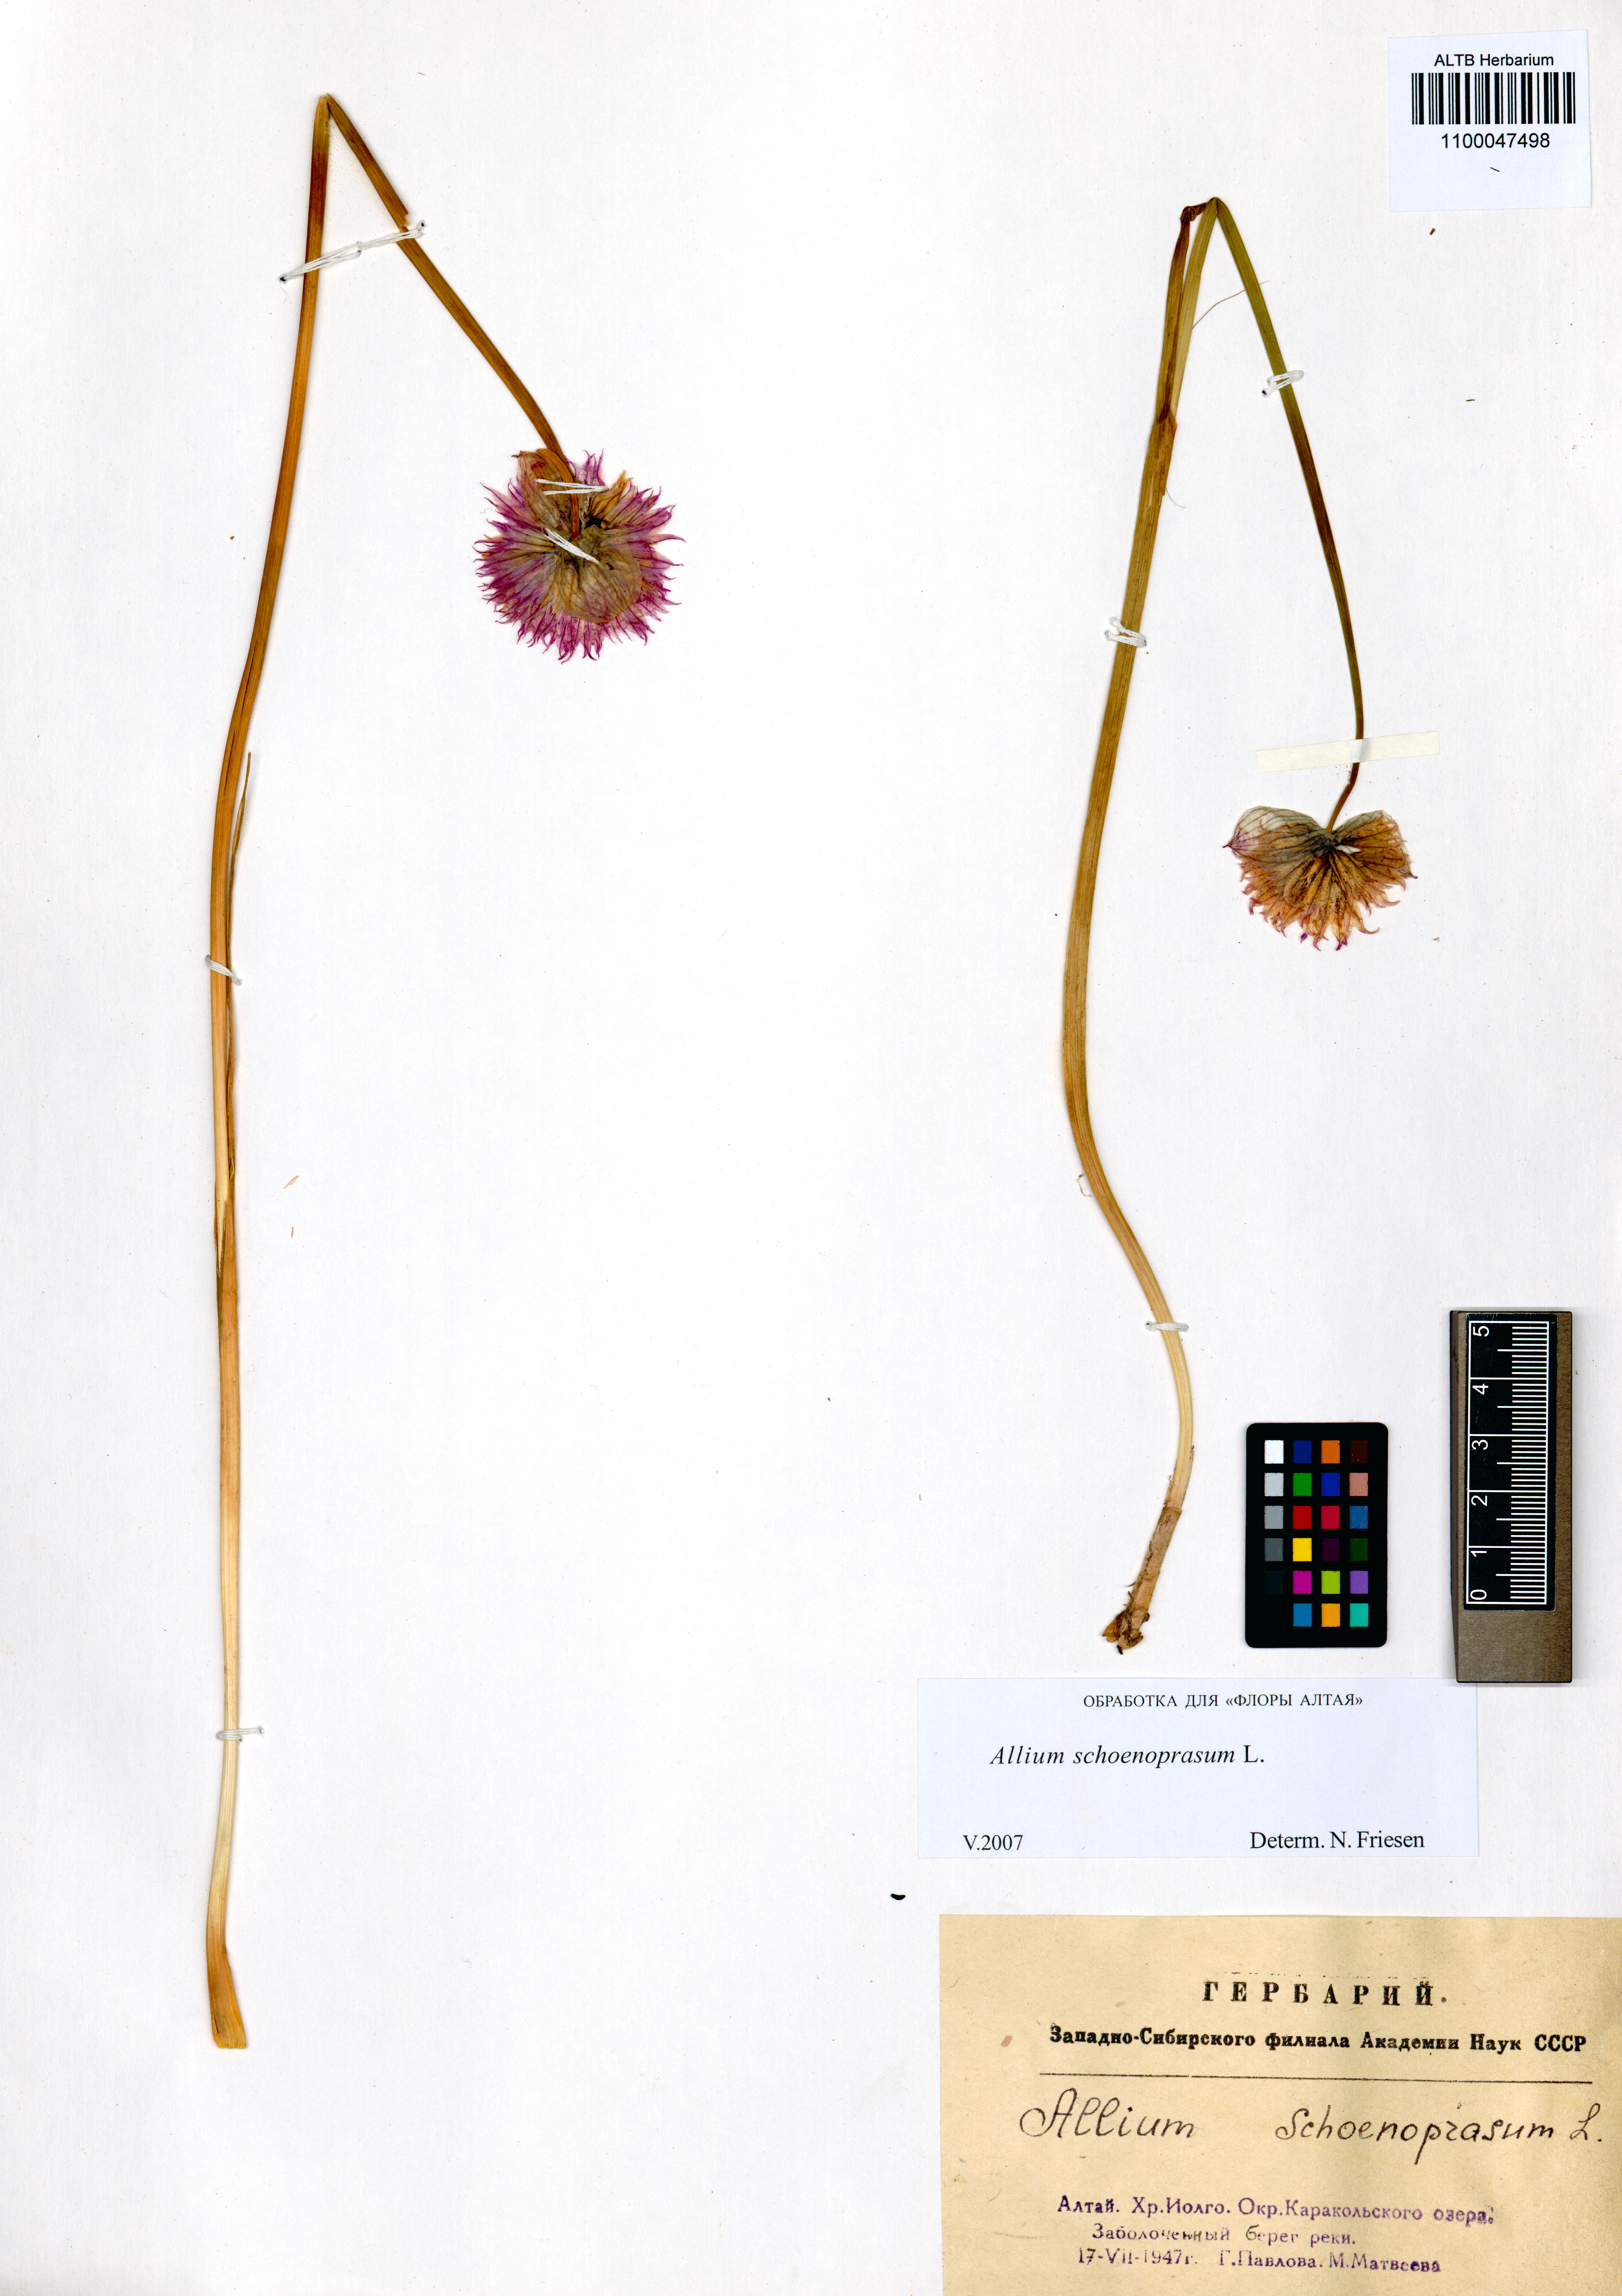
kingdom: Plantae
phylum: Tracheophyta
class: Liliopsida
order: Asparagales
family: Amaryllidaceae
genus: Allium
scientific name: Allium schoenoprasum
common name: Chives
